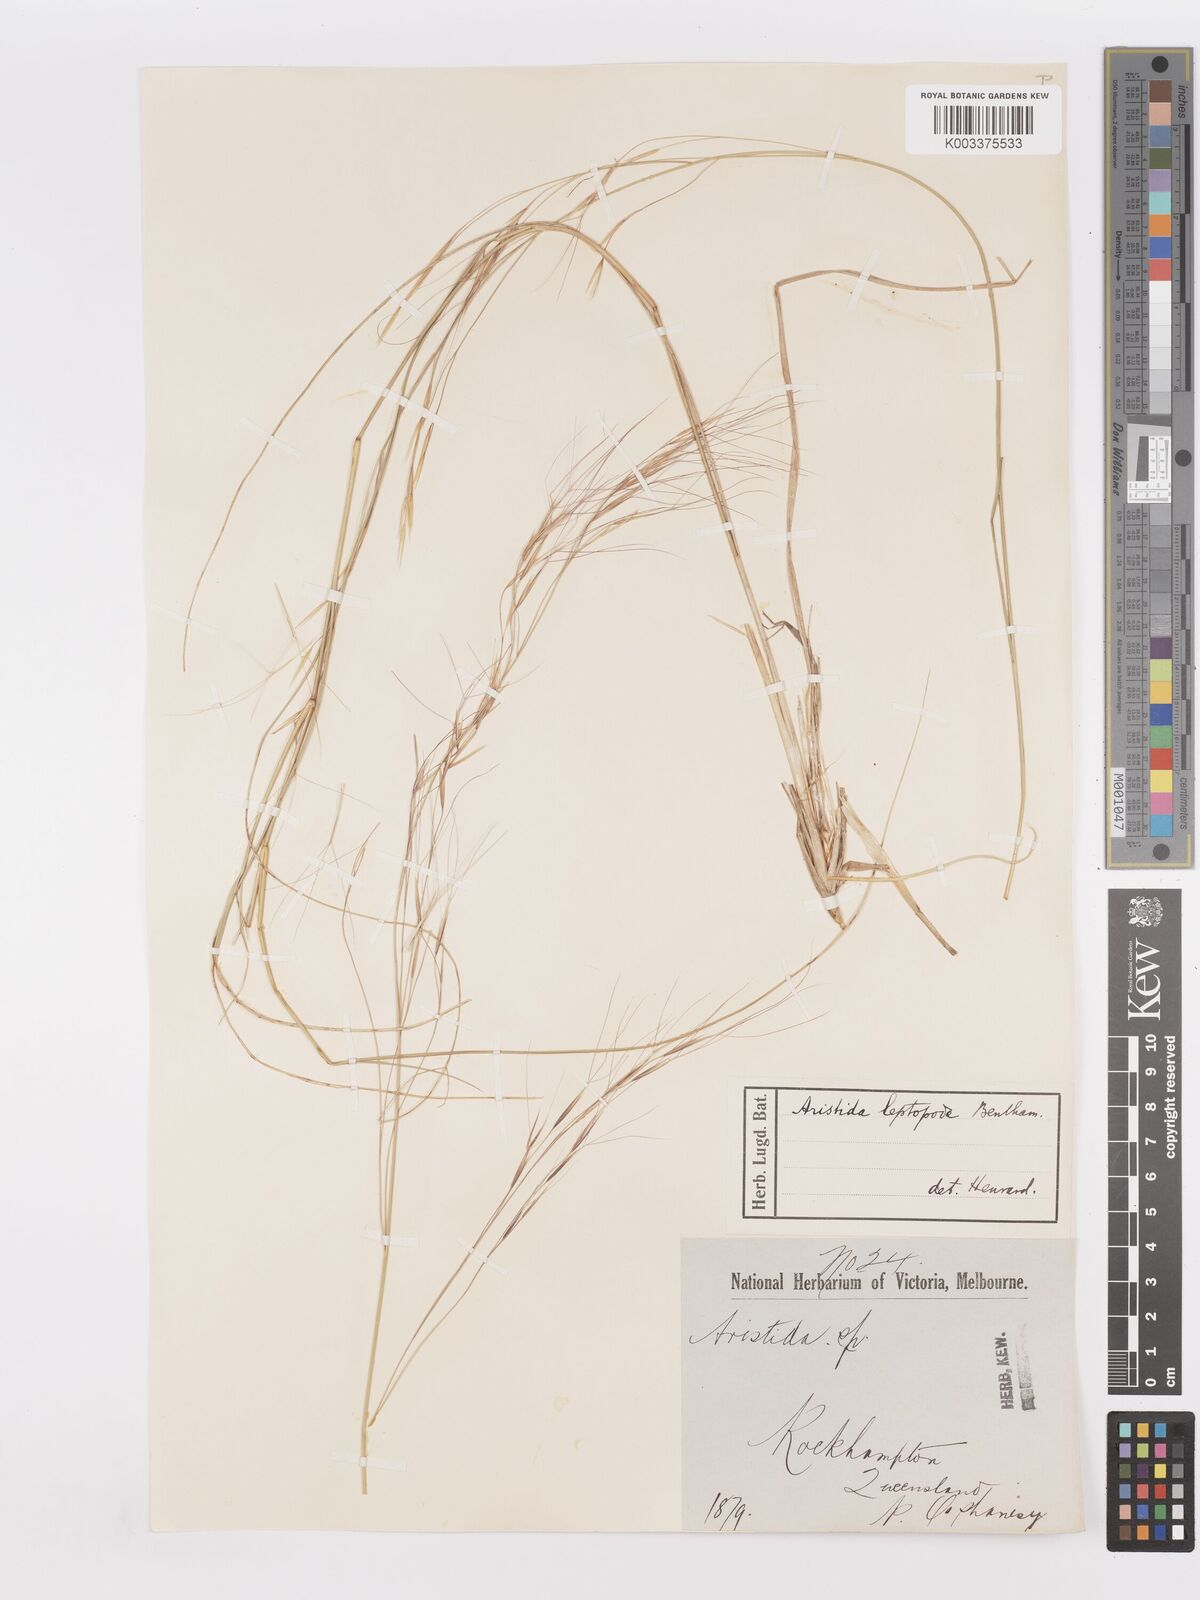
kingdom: Plantae
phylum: Tracheophyta
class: Liliopsida
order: Poales
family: Poaceae
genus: Aristida
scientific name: Aristida leptopoda
